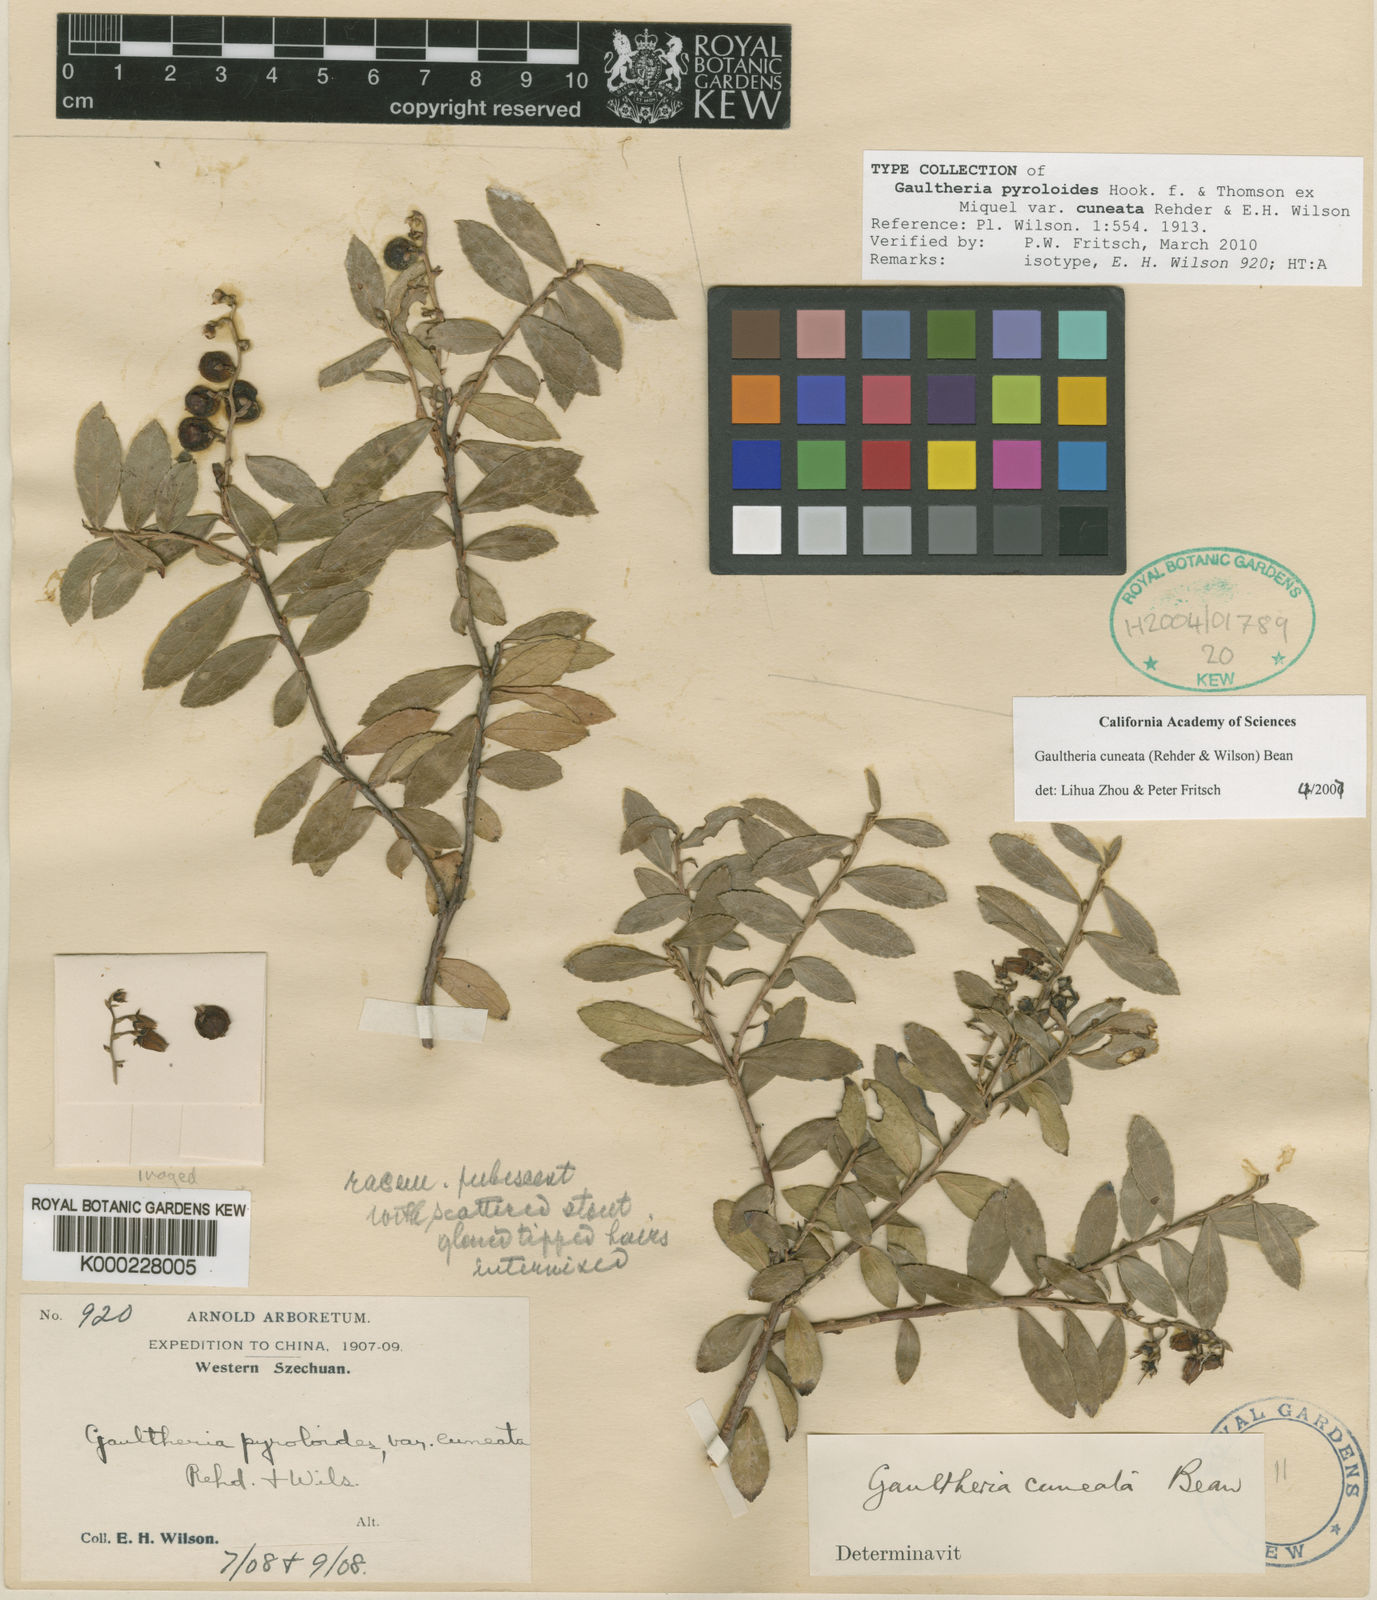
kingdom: Plantae
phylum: Tracheophyta
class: Magnoliopsida
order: Ericales
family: Ericaceae
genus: Gaultheria
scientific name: Gaultheria cuneata
